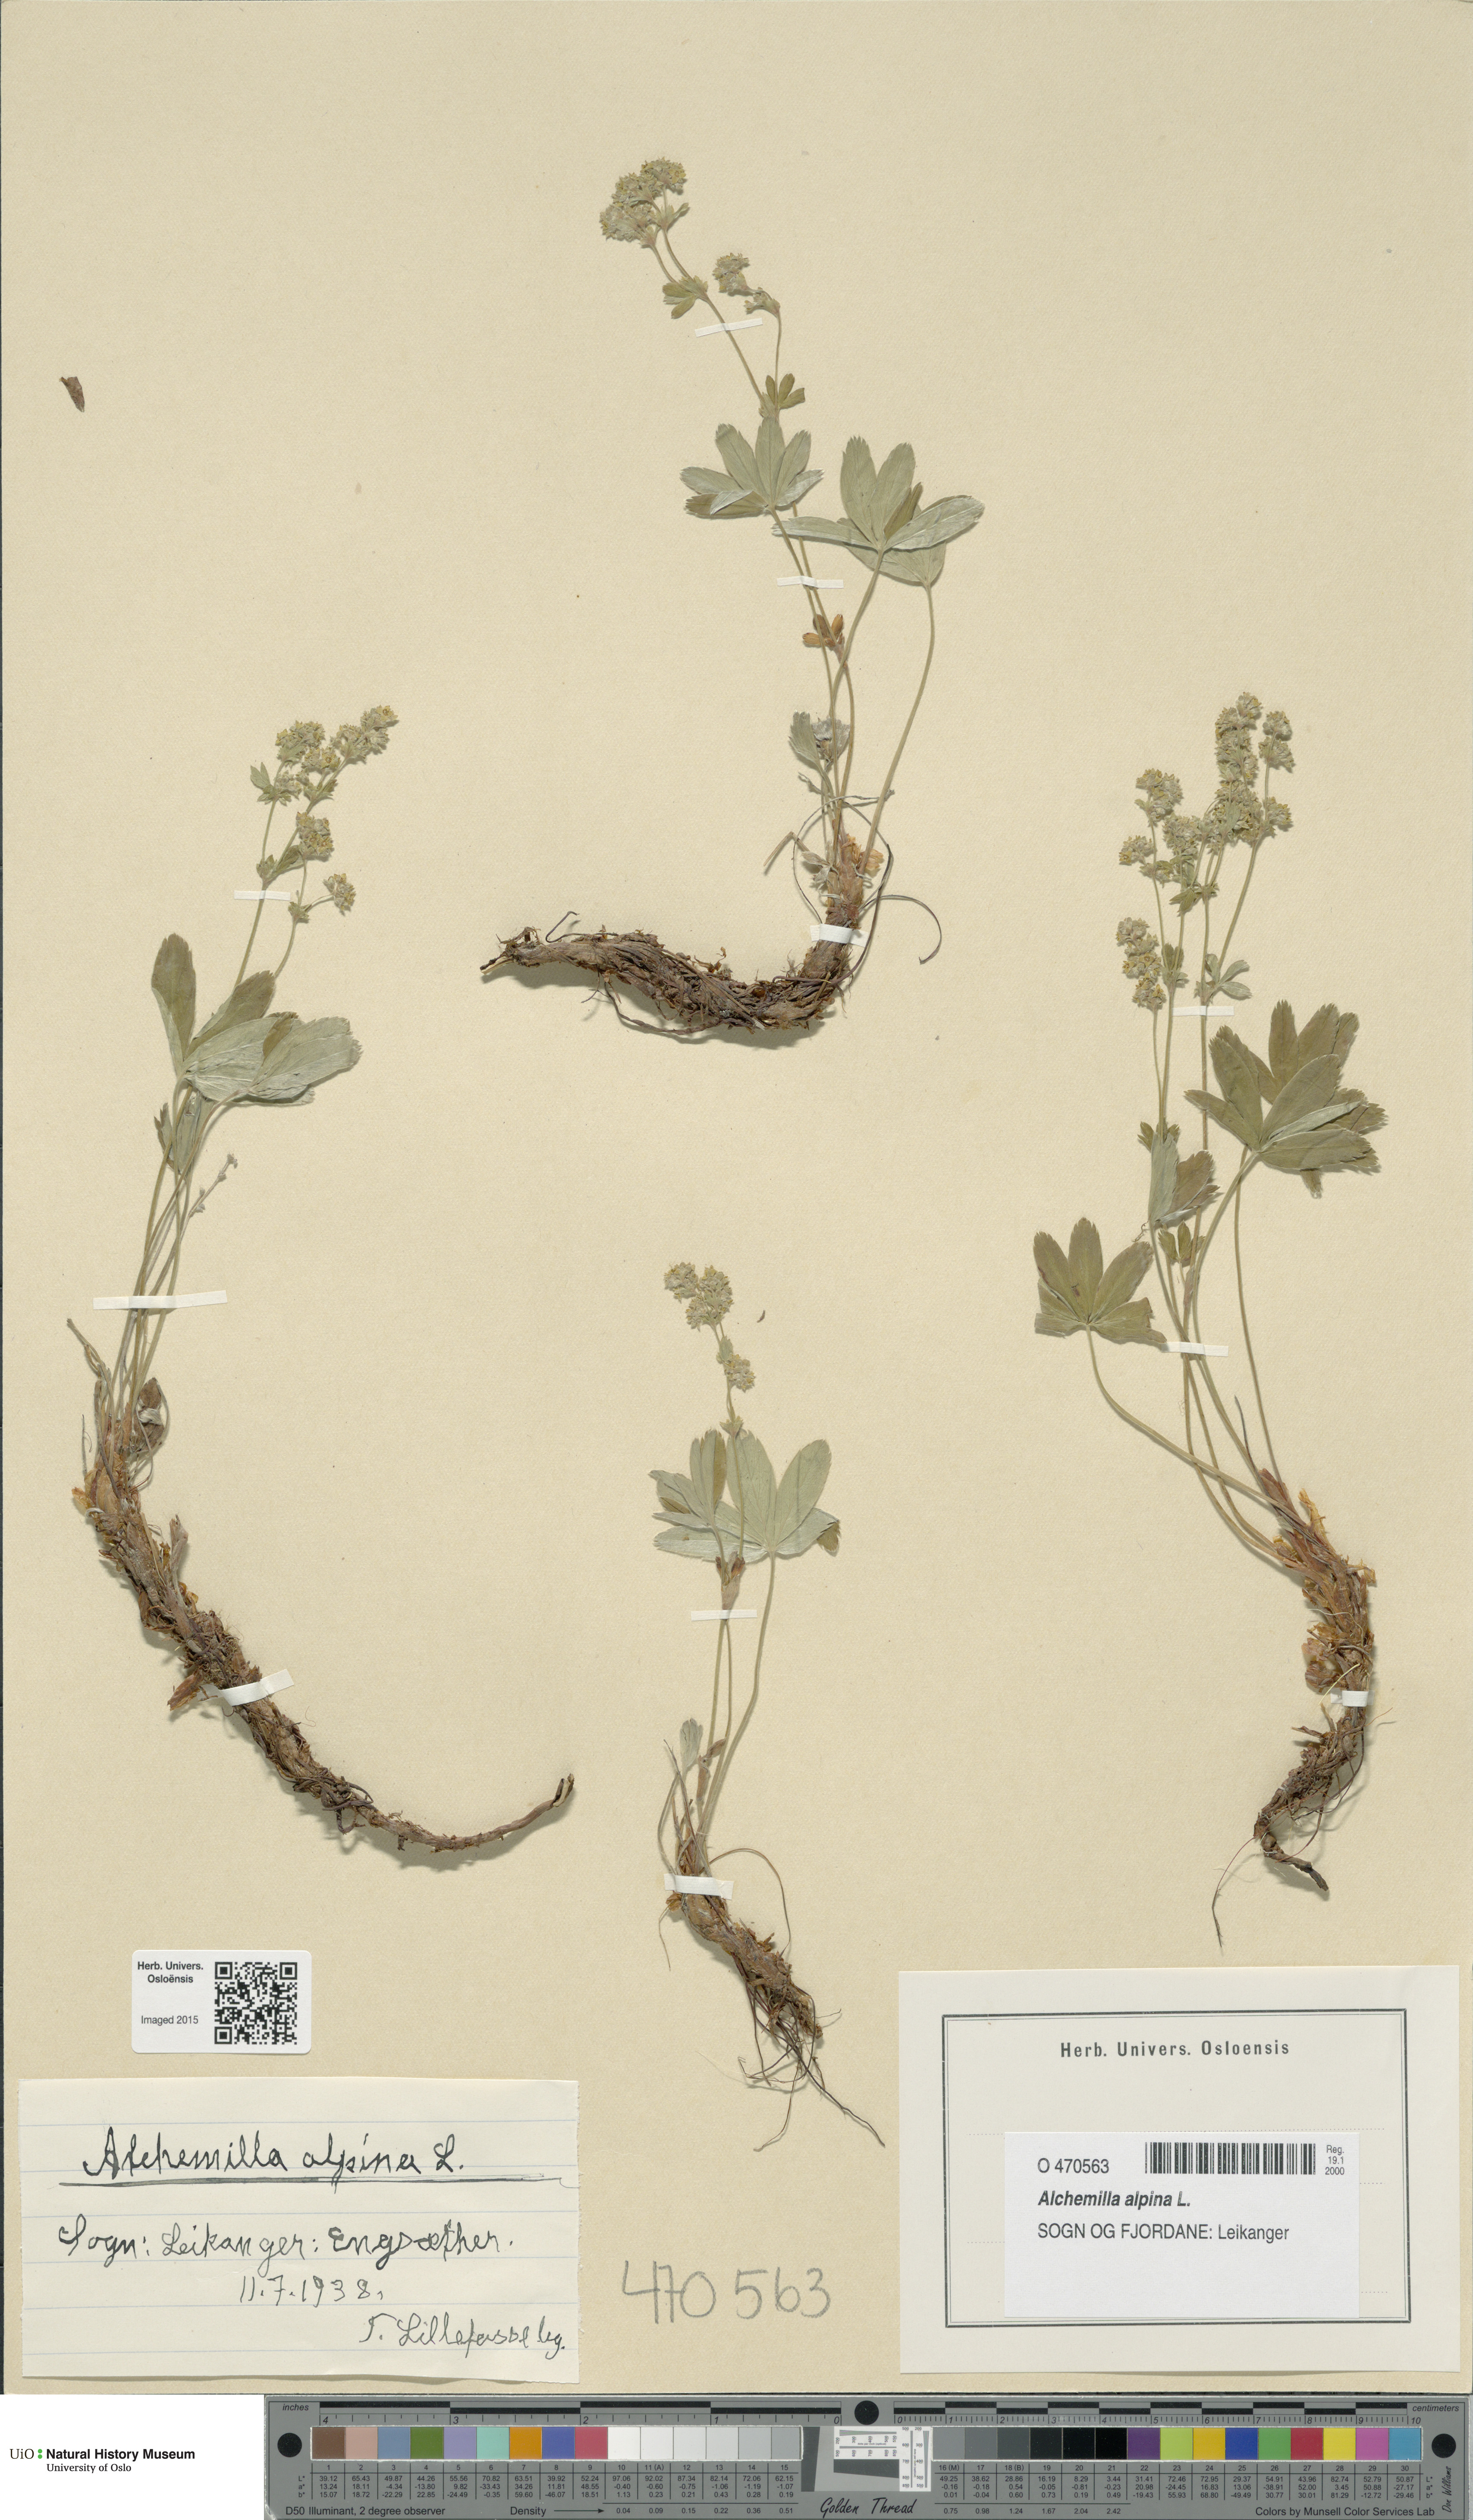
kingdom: Plantae
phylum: Tracheophyta
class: Magnoliopsida
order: Rosales
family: Rosaceae
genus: Alchemilla
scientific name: Alchemilla alpina
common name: Alpine lady's-mantle
